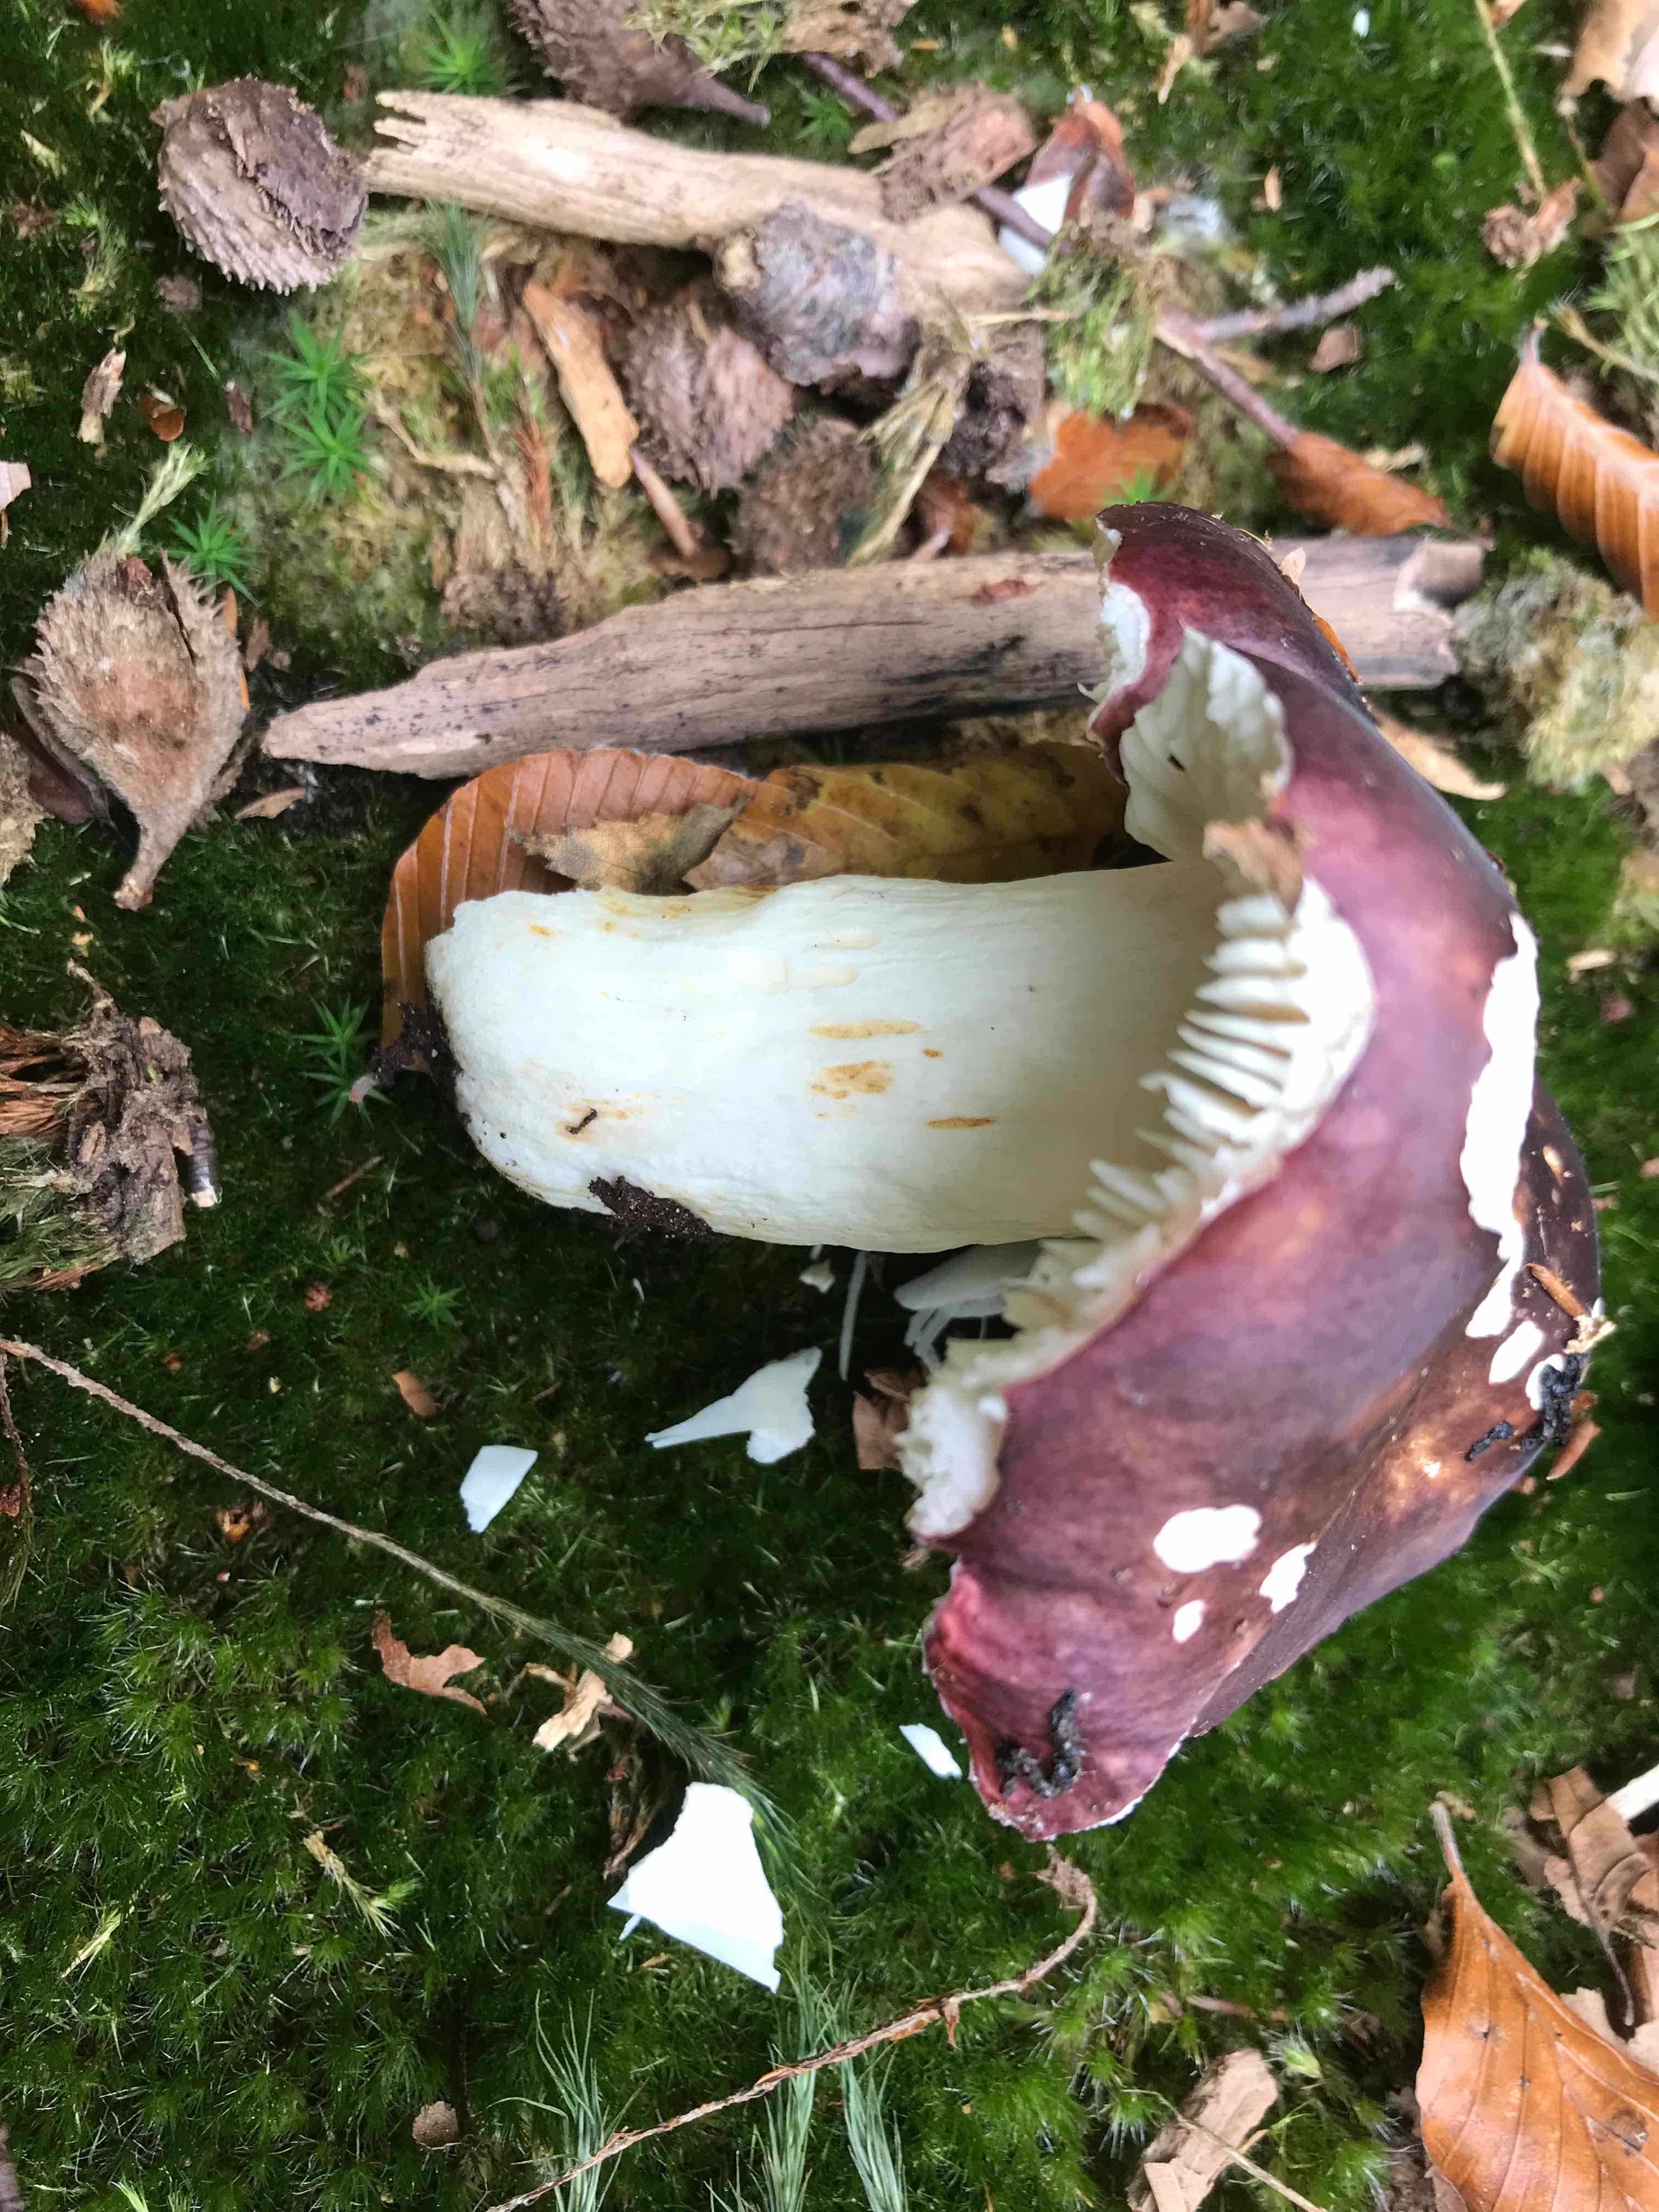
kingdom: Fungi
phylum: Basidiomycota
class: Agaricomycetes
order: Russulales
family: Russulaceae
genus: Russula
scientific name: Russula atropurpurea
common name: purpurbroget skørhat
